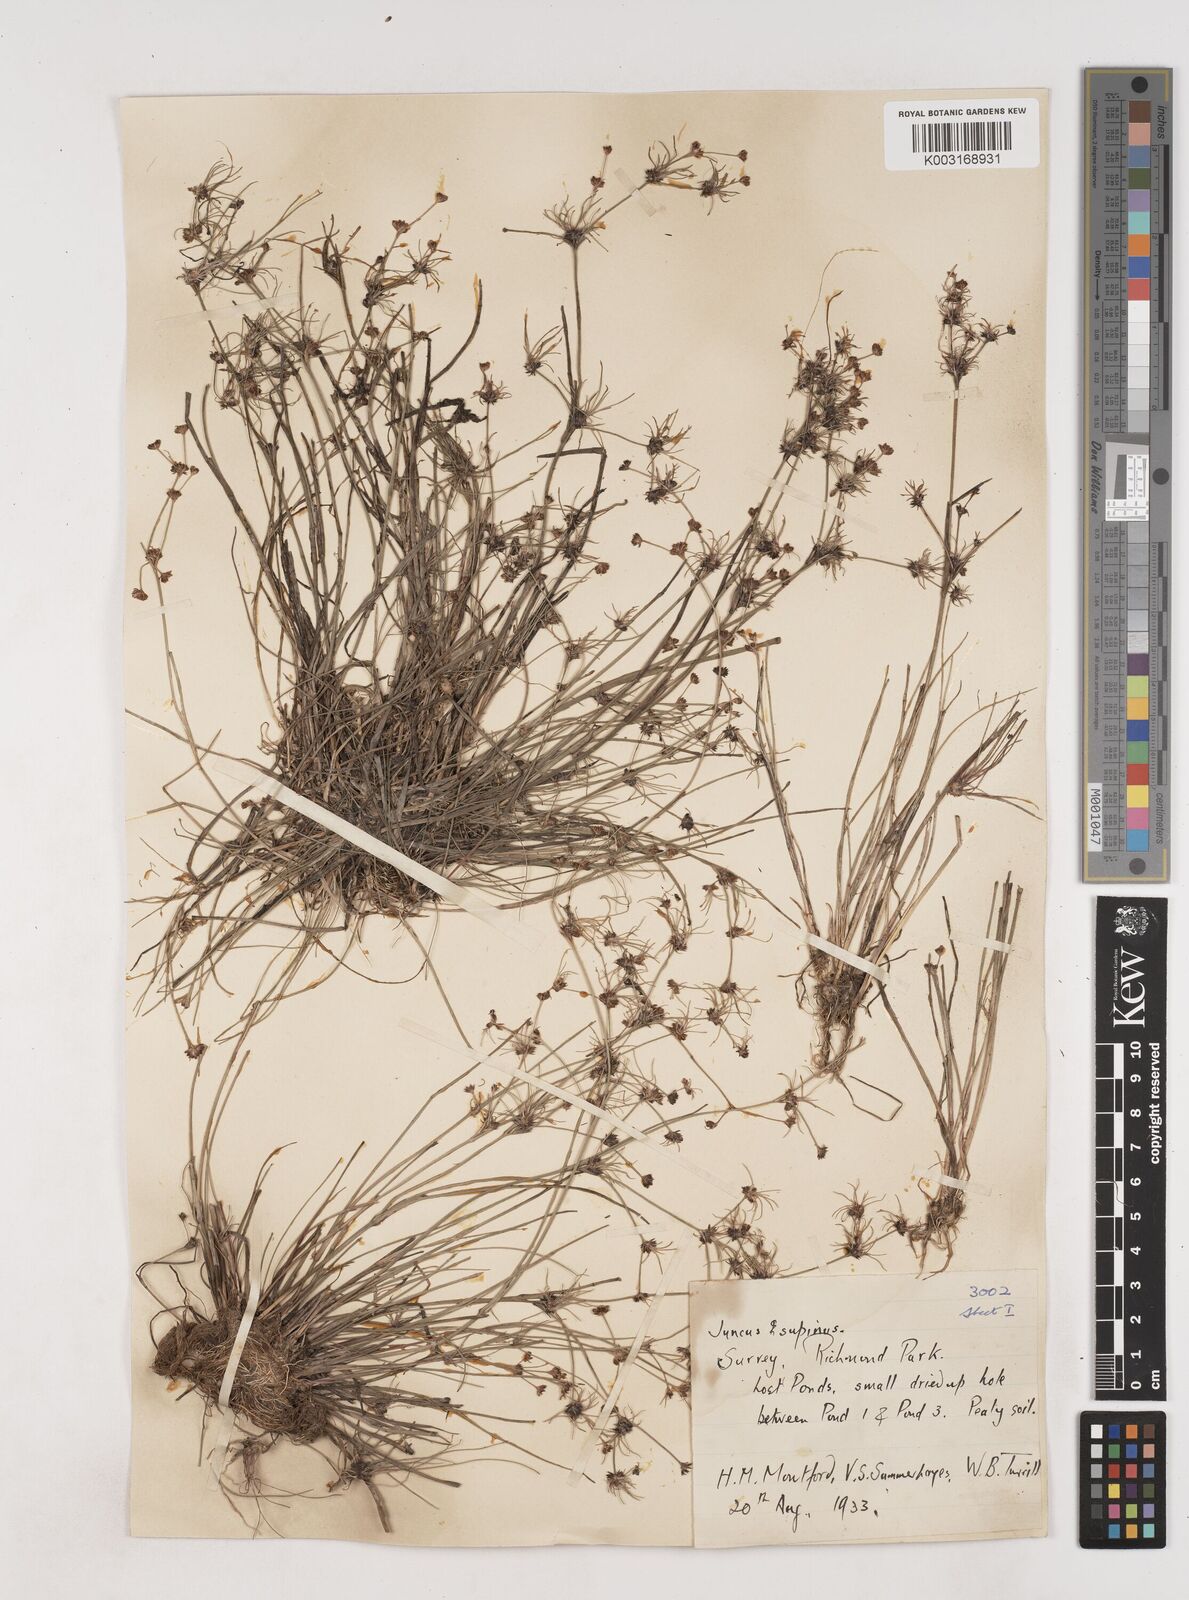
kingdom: Plantae
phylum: Tracheophyta
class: Liliopsida
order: Poales
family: Juncaceae
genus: Juncus
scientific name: Juncus bulbosus
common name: Bulbous rush
